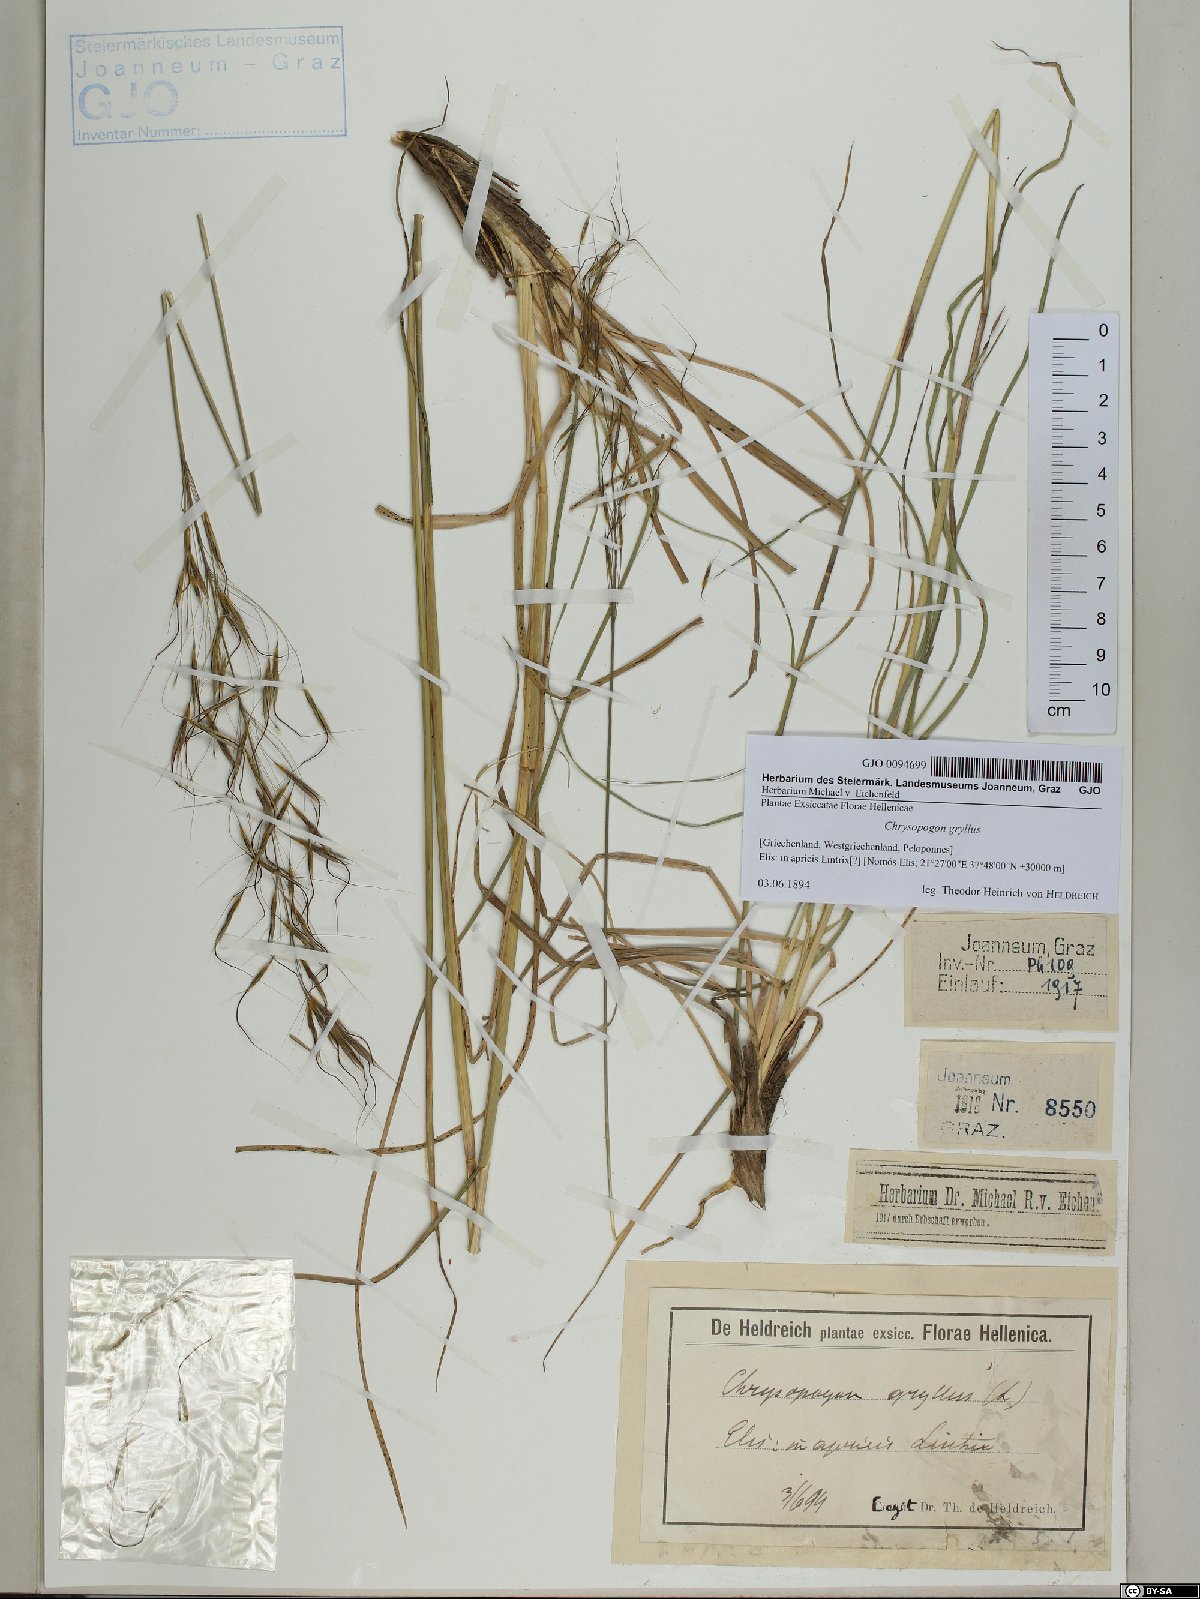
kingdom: Plantae
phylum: Tracheophyta
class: Liliopsida
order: Poales
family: Poaceae
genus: Chrysopogon
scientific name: Chrysopogon gryllus
